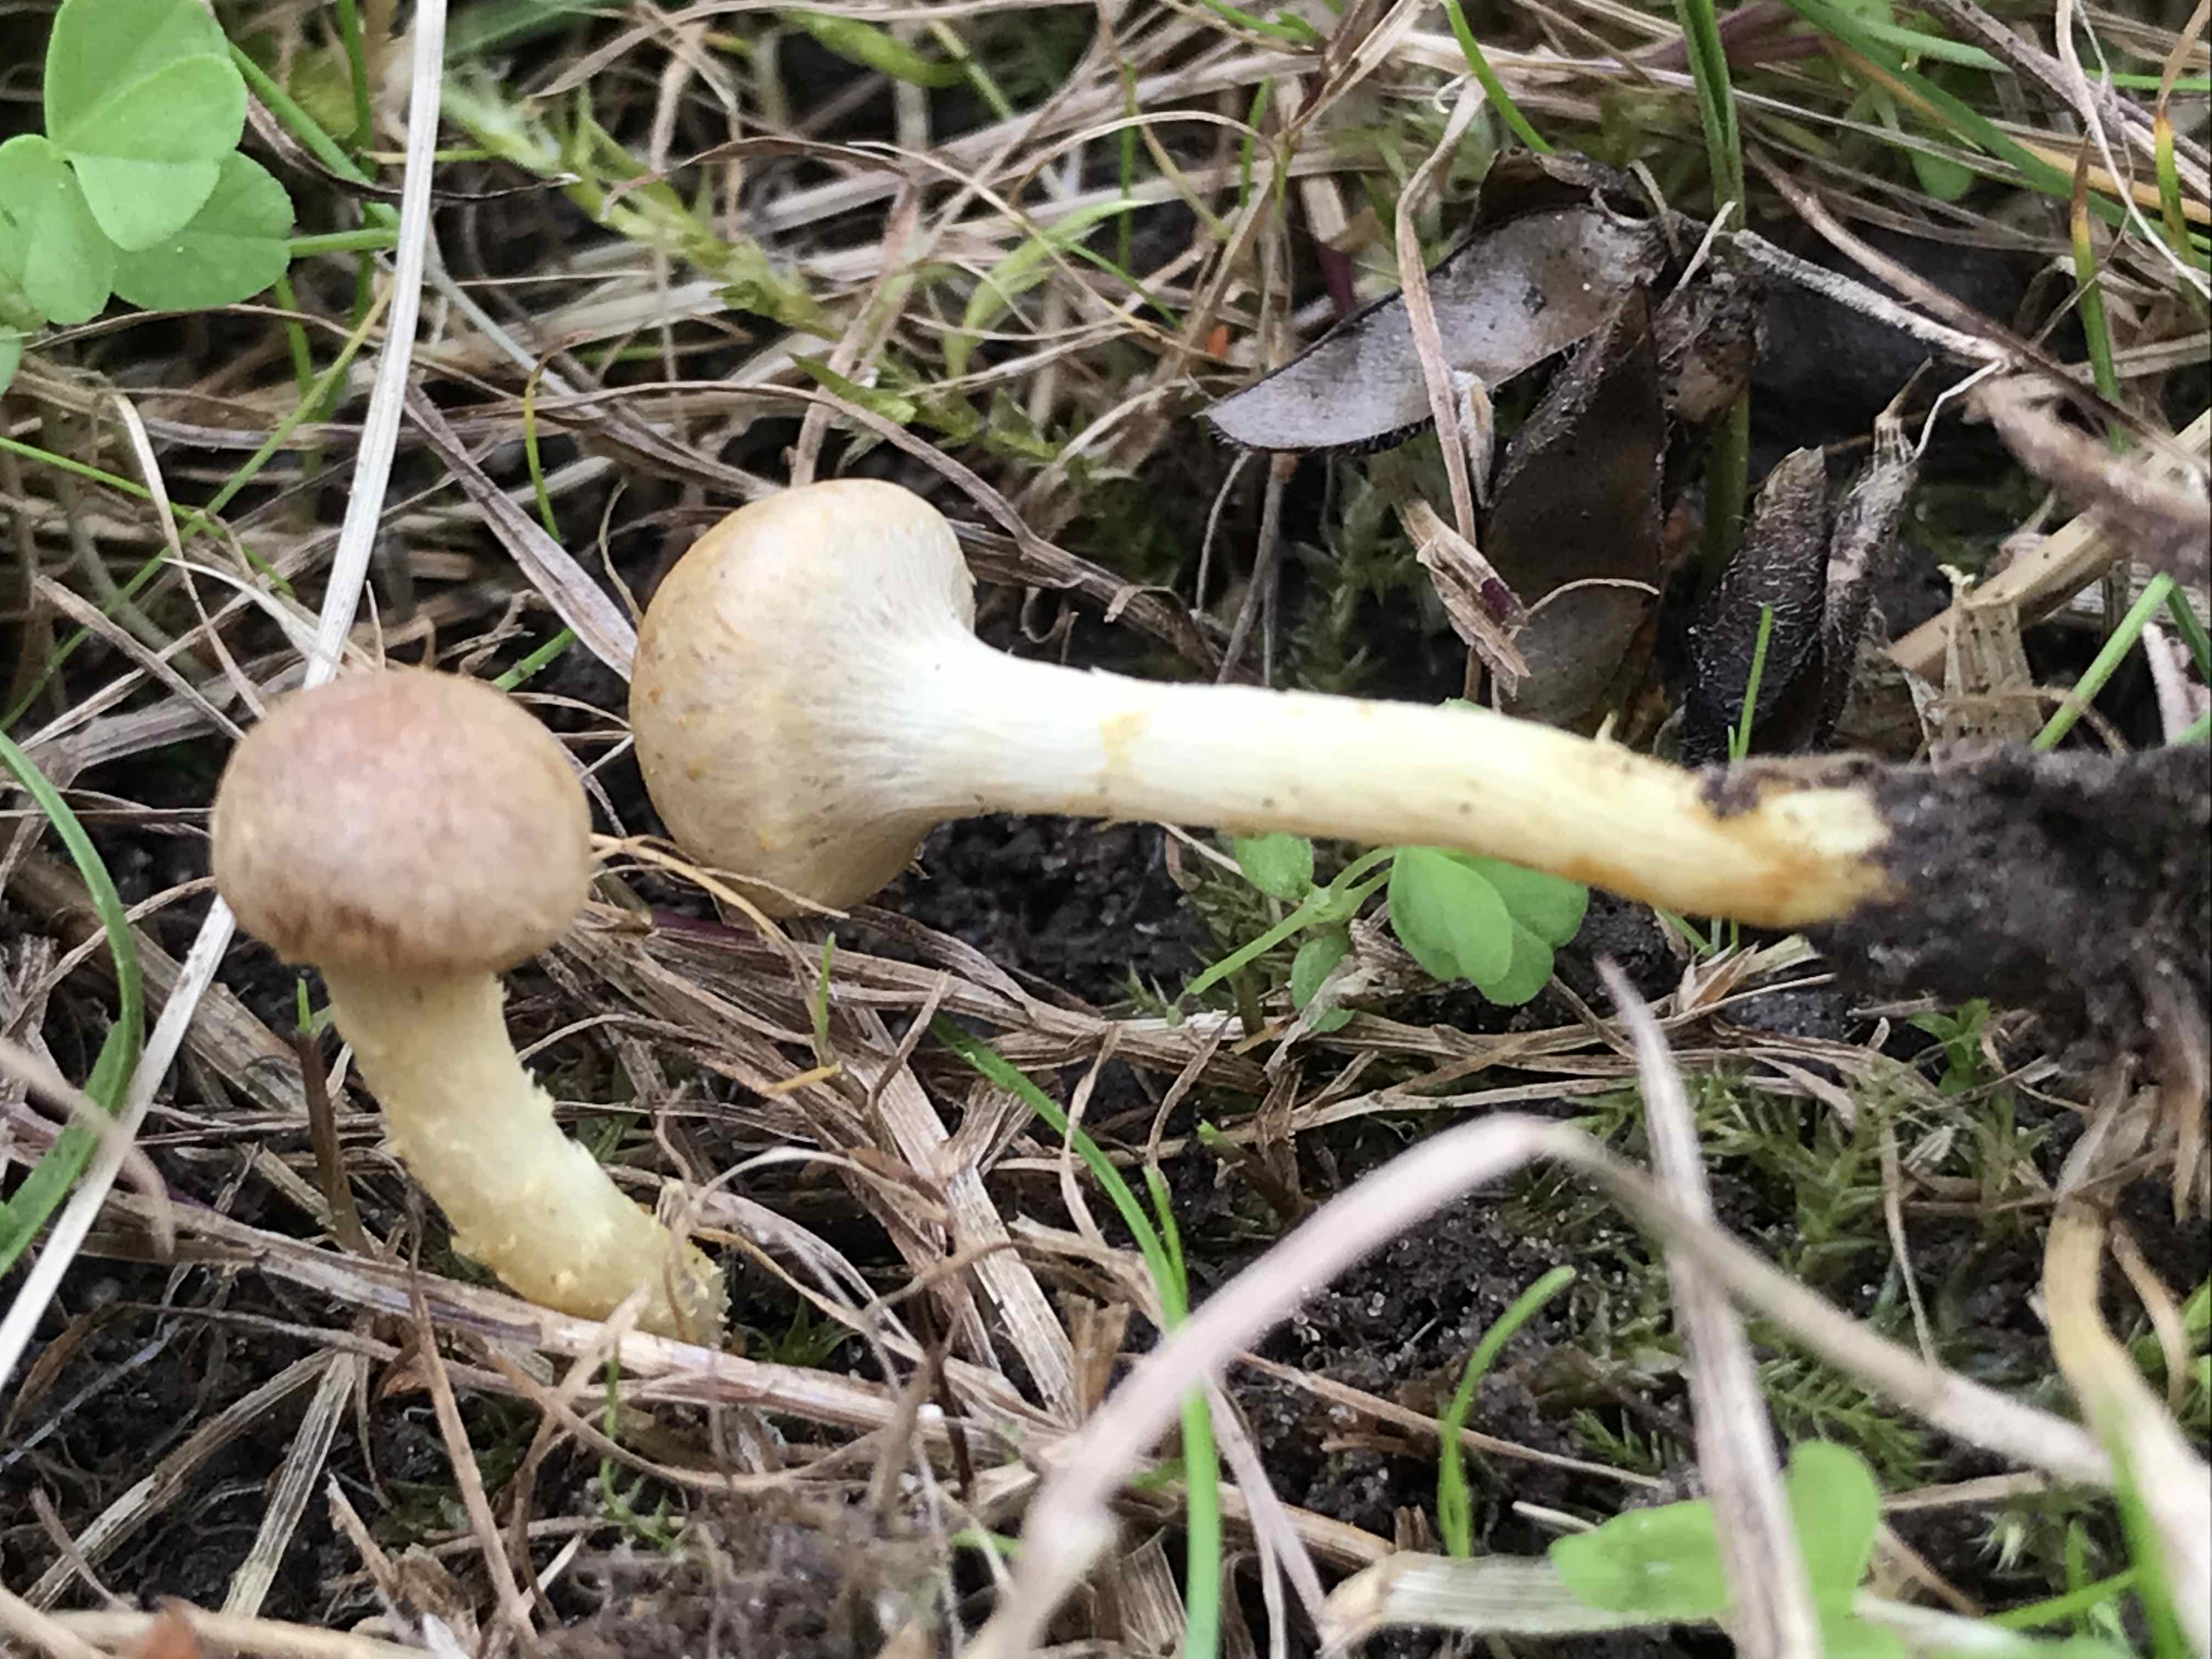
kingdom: Fungi
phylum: Basidiomycota
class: Agaricomycetes
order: Agaricales
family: Strophariaceae
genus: Pholiota
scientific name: Pholiota conissans
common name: pile-skælhat
